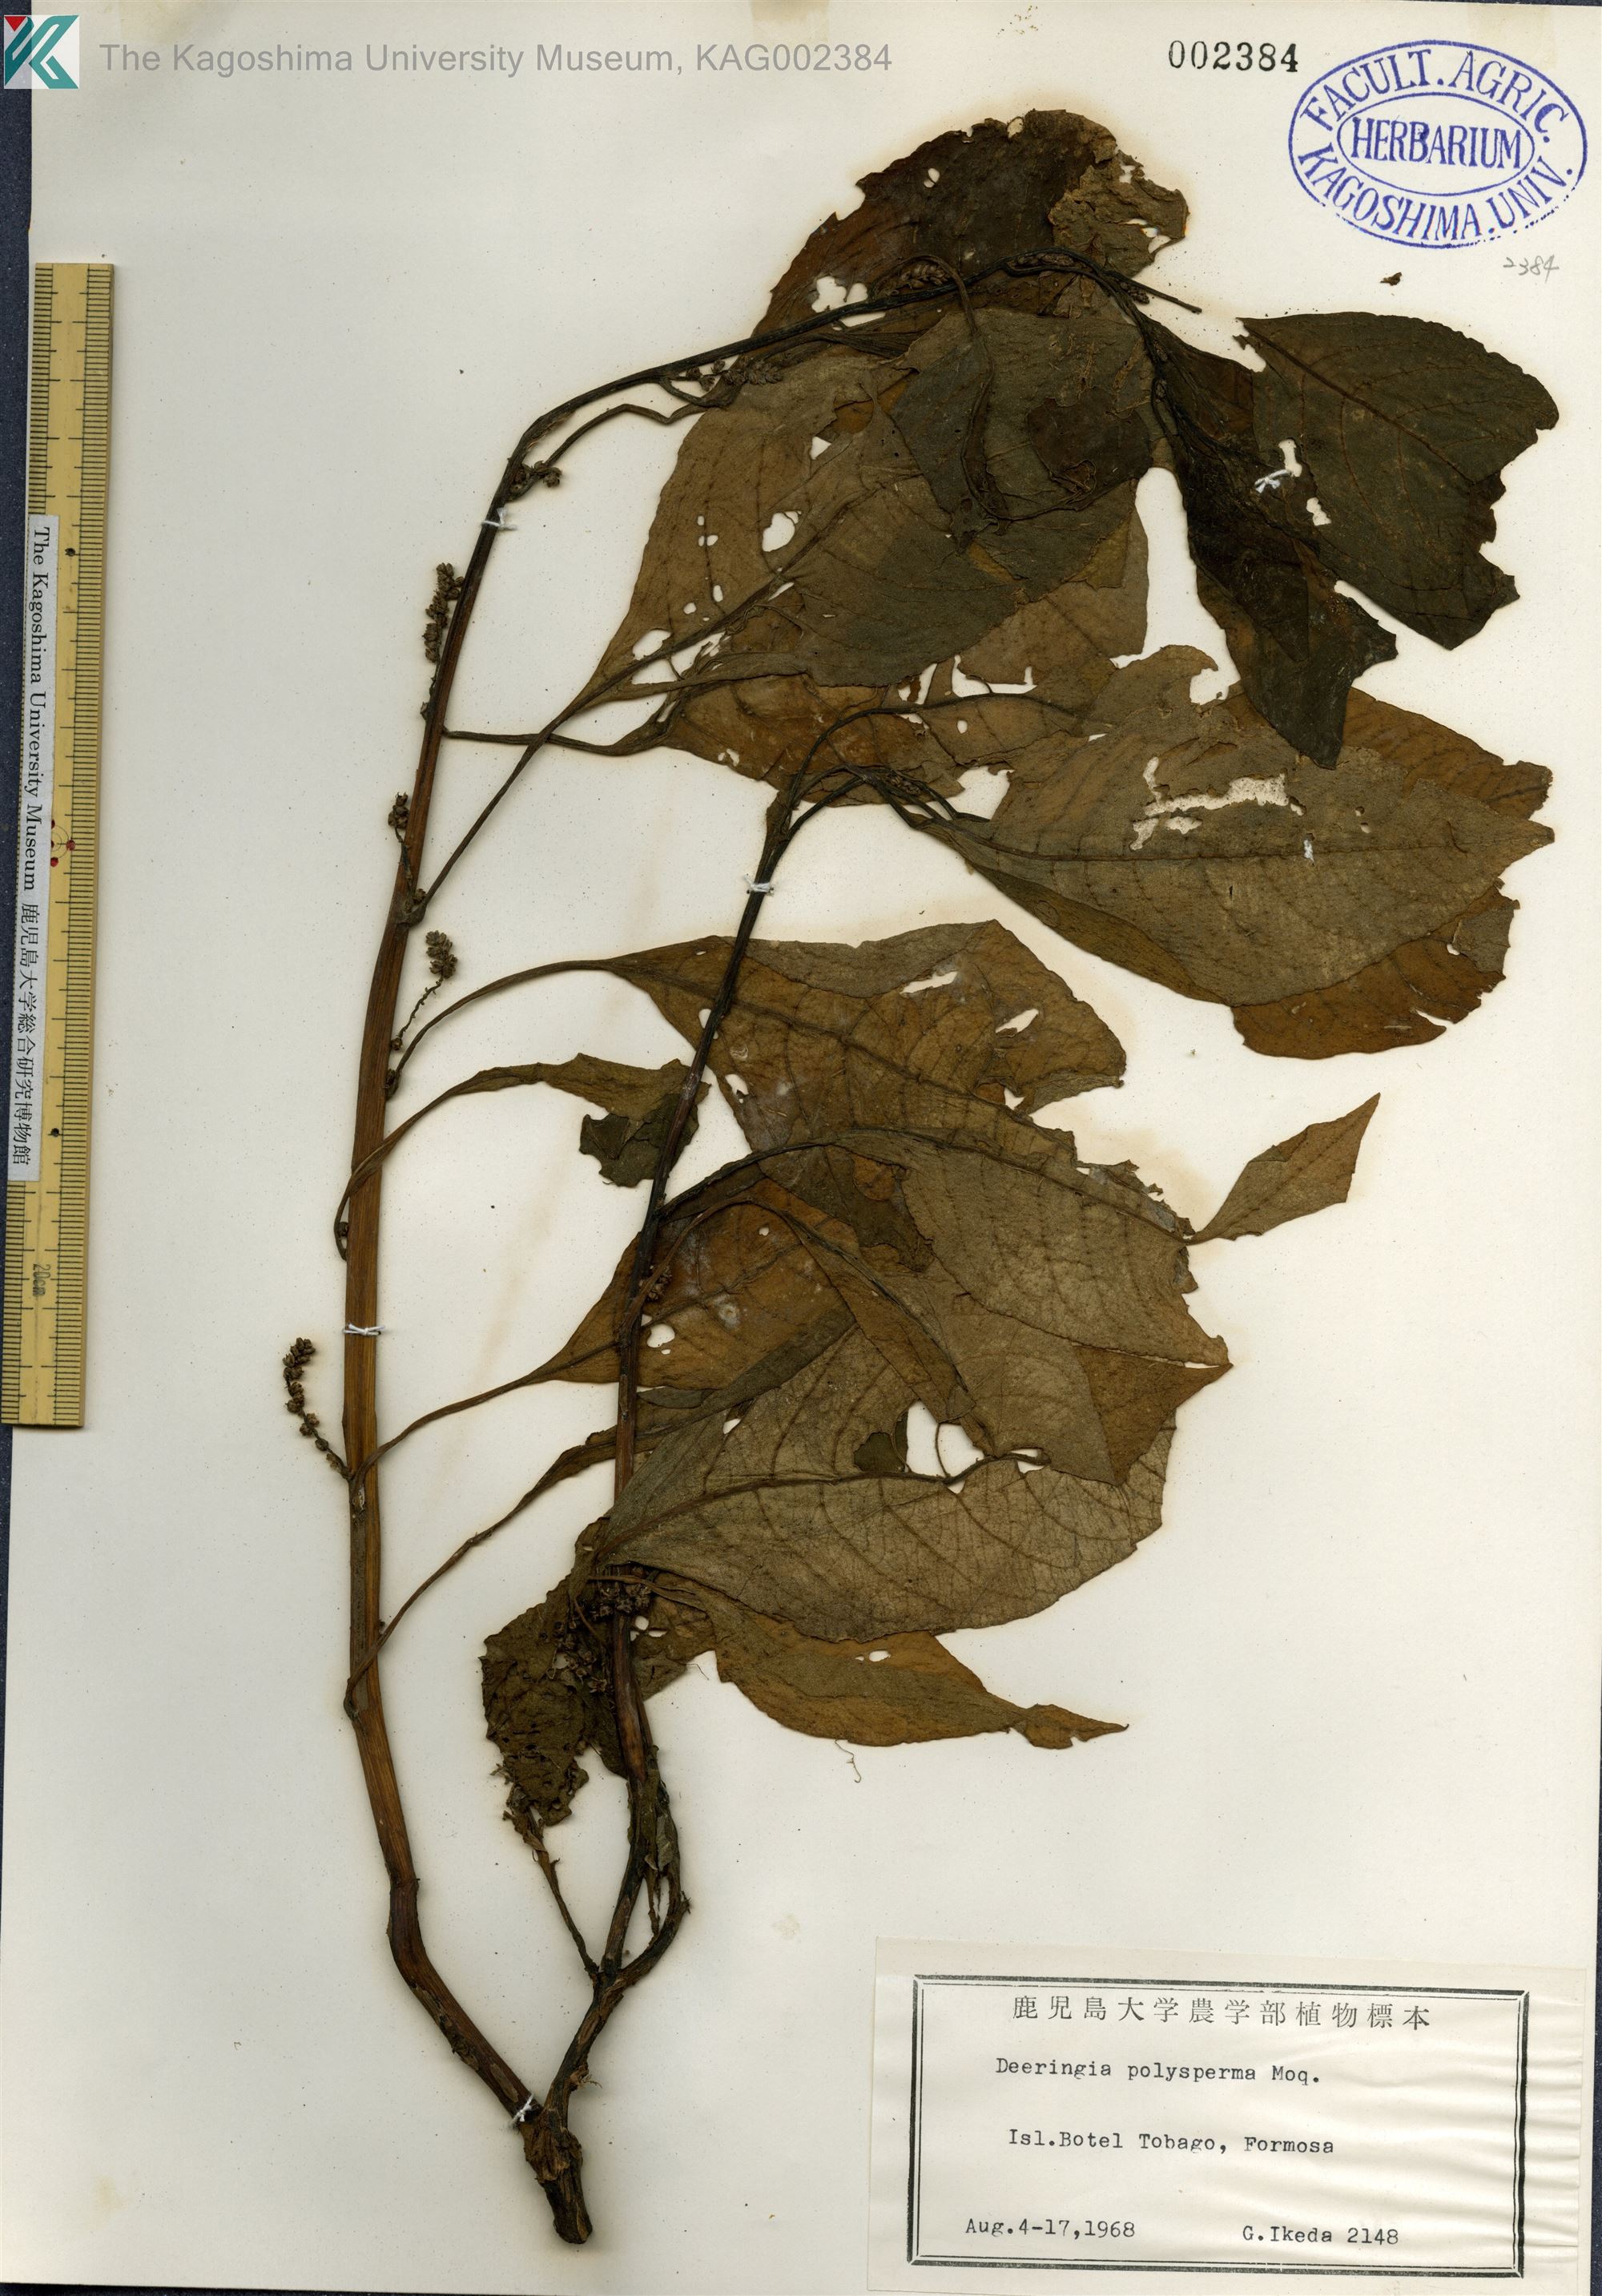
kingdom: Plantae
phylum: Tracheophyta
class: Magnoliopsida
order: Caryophyllales
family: Amaranthaceae
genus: Deeringia
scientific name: Deeringia polysperma
